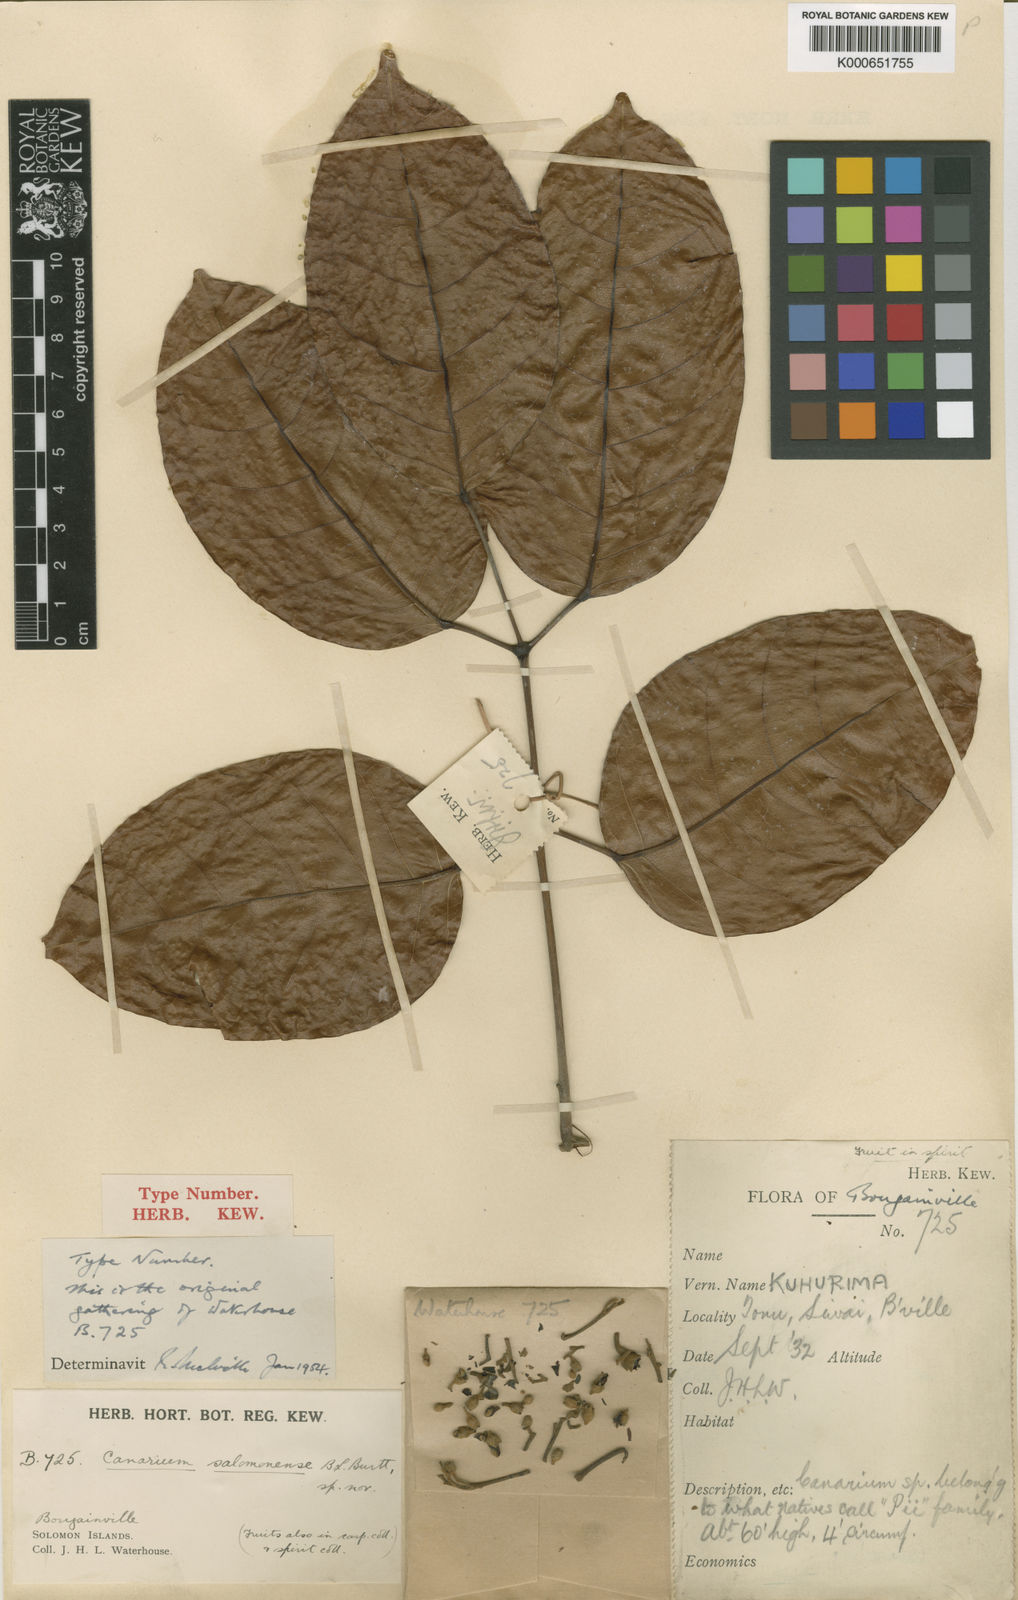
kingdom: Plantae
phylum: Tracheophyta
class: Magnoliopsida
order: Sapindales
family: Burseraceae
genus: Canarium
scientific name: Canarium salomonense
